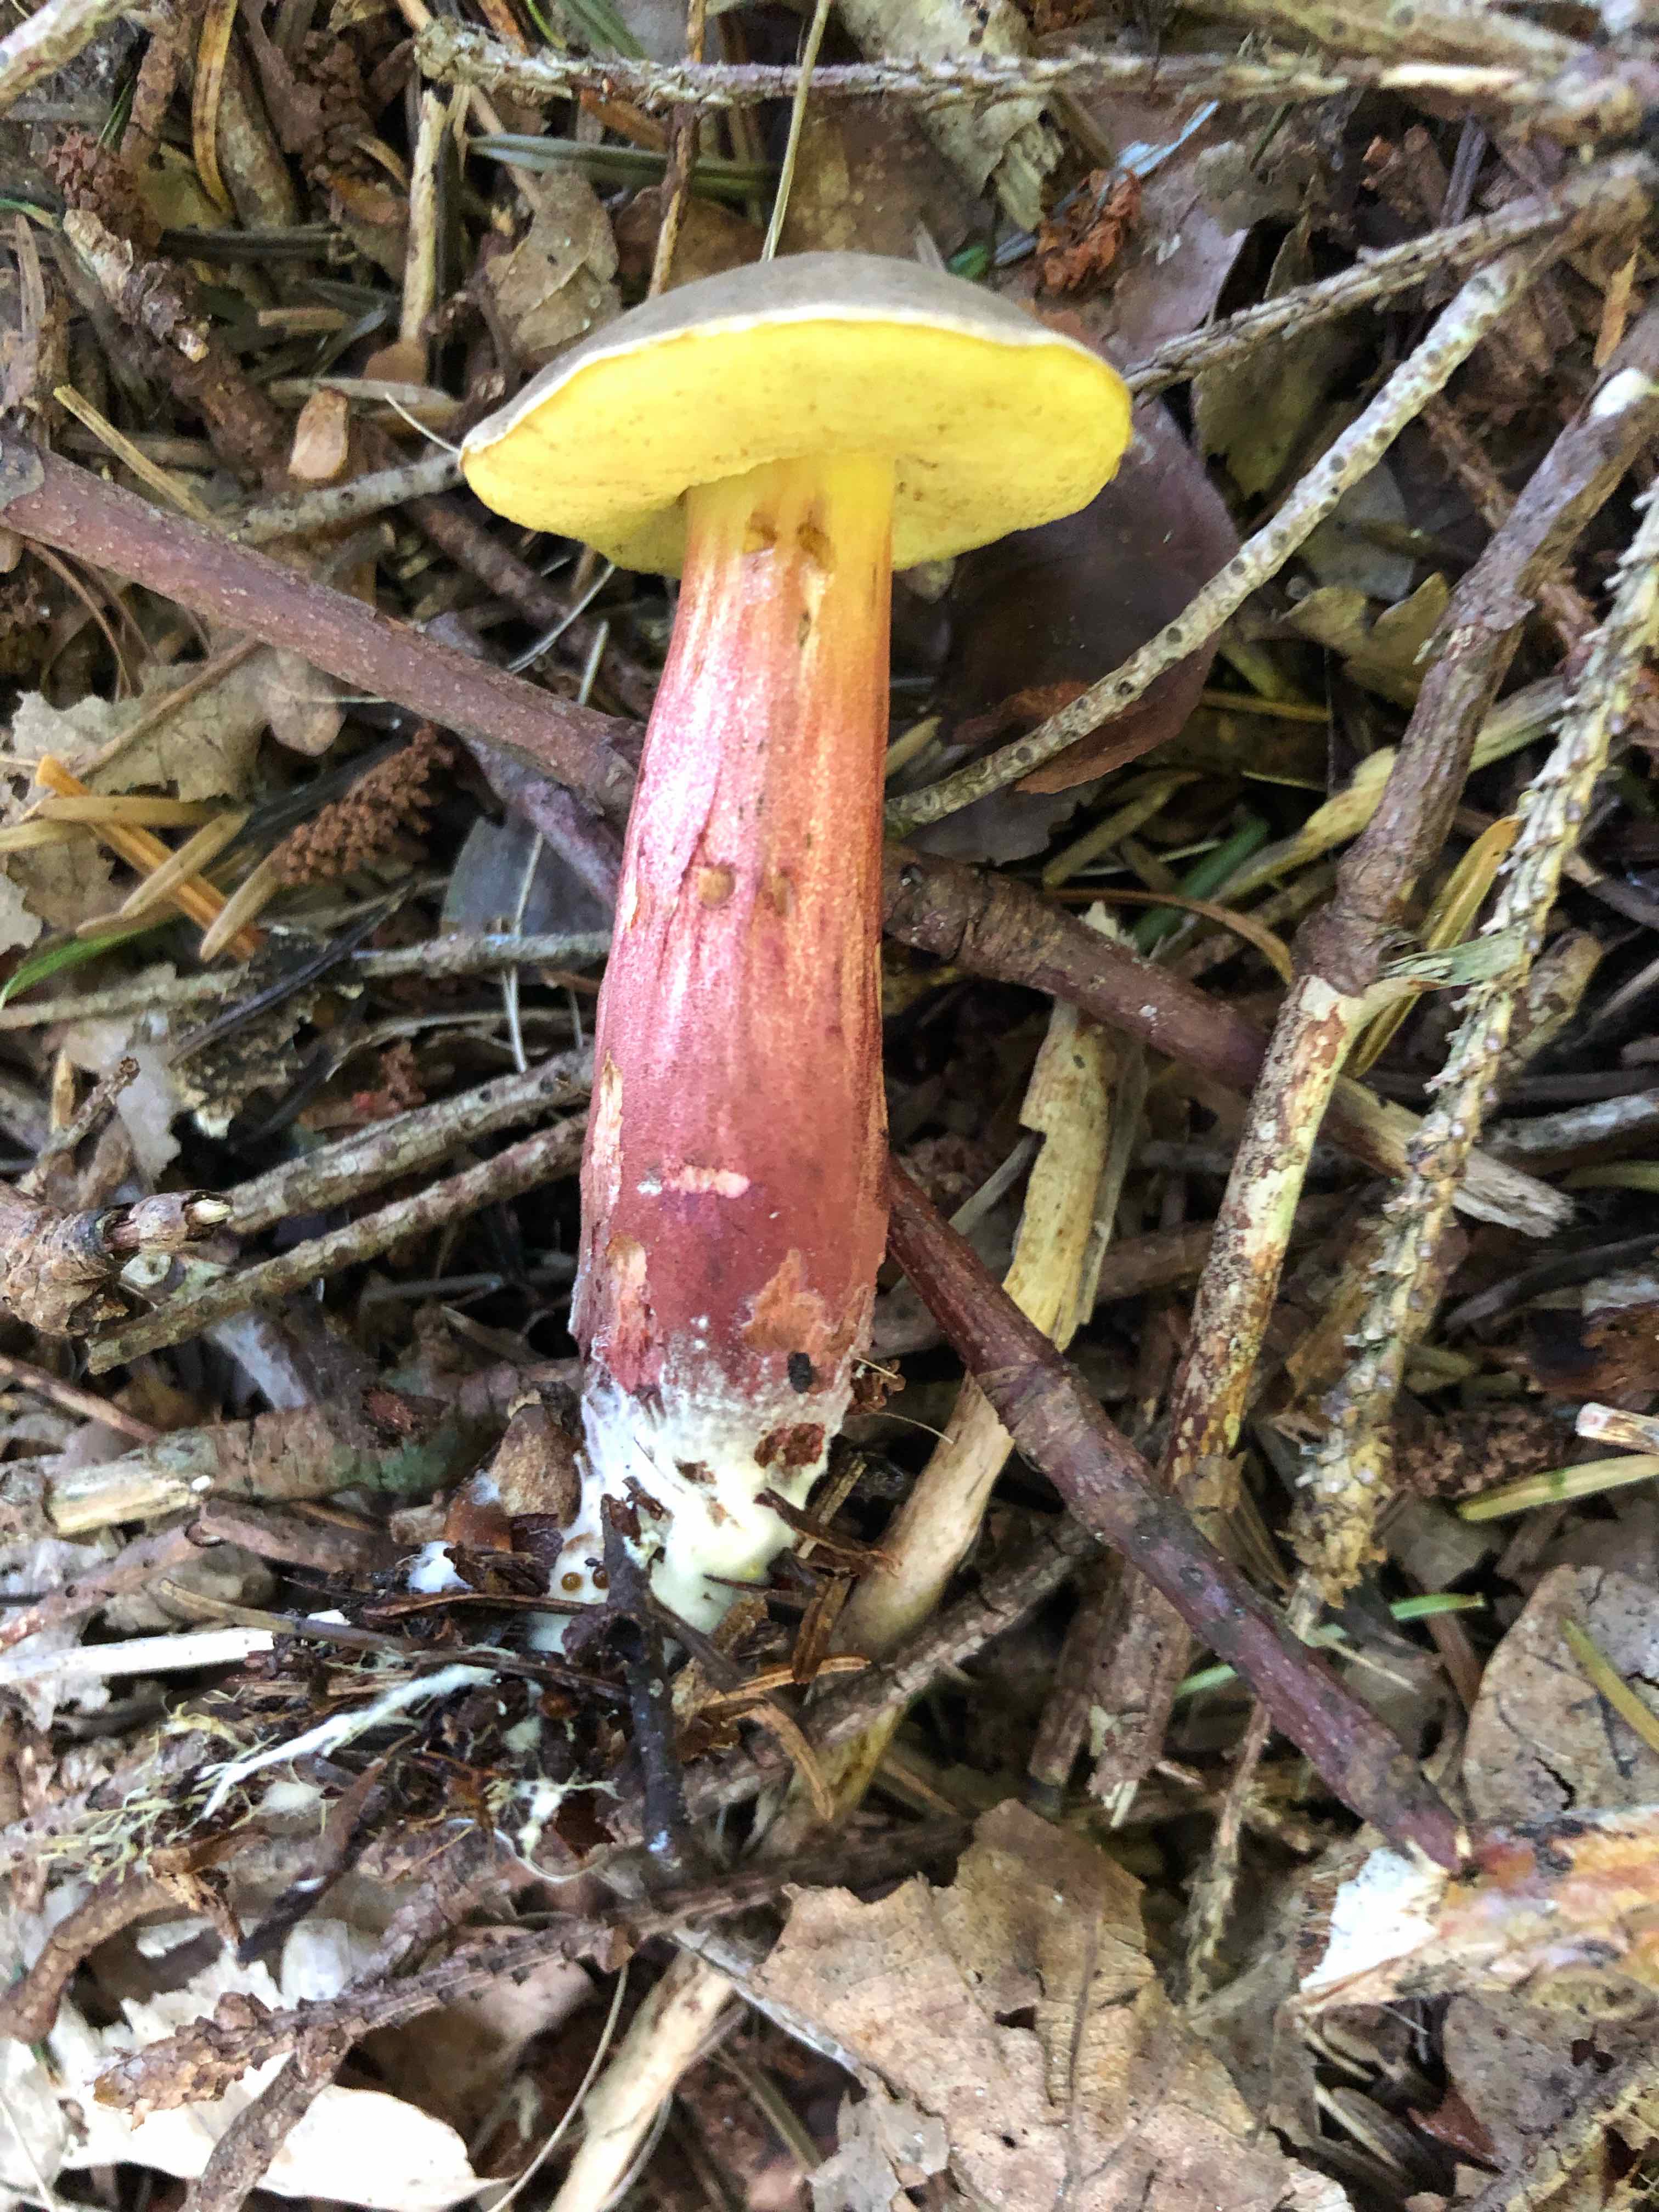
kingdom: Fungi
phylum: Basidiomycota
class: Agaricomycetes
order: Boletales
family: Boletaceae
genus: Xerocomellus
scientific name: Xerocomellus chrysenteron
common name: rødsprukken rørhat
